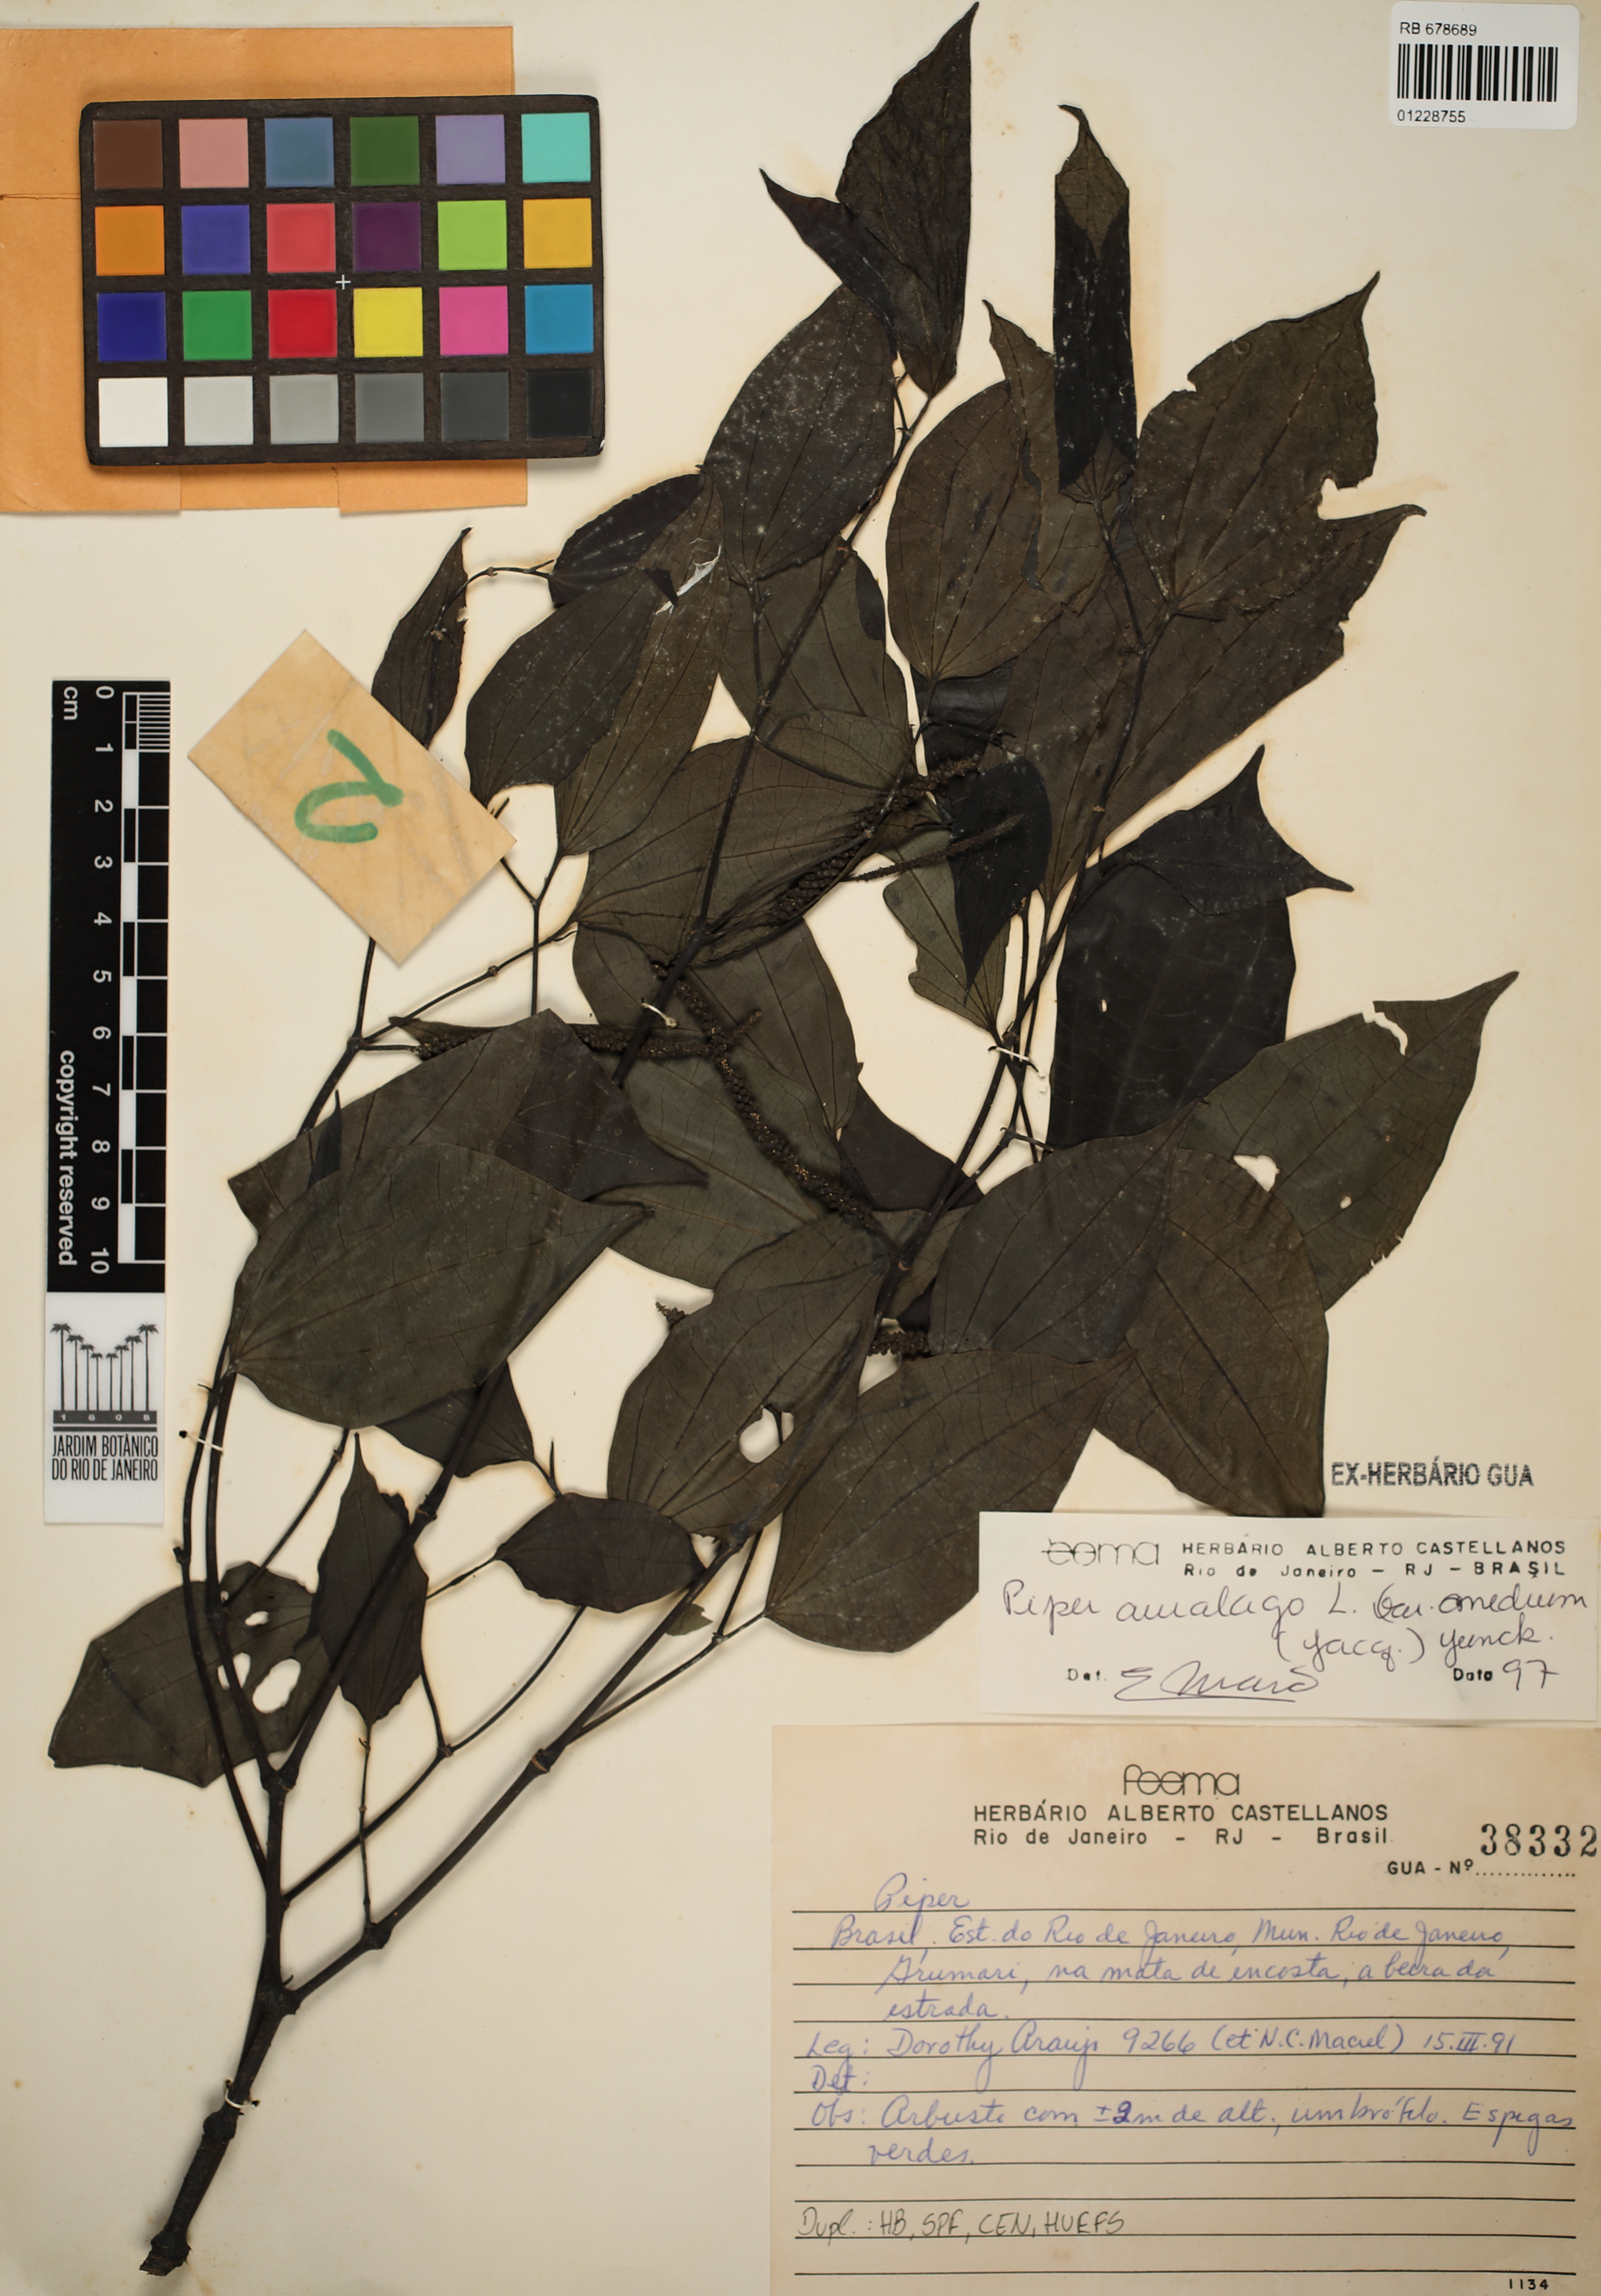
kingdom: Plantae
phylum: Tracheophyta
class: Magnoliopsida
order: Piperales
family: Piperaceae
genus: Piper
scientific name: Piper amalago
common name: Pepper-elder
